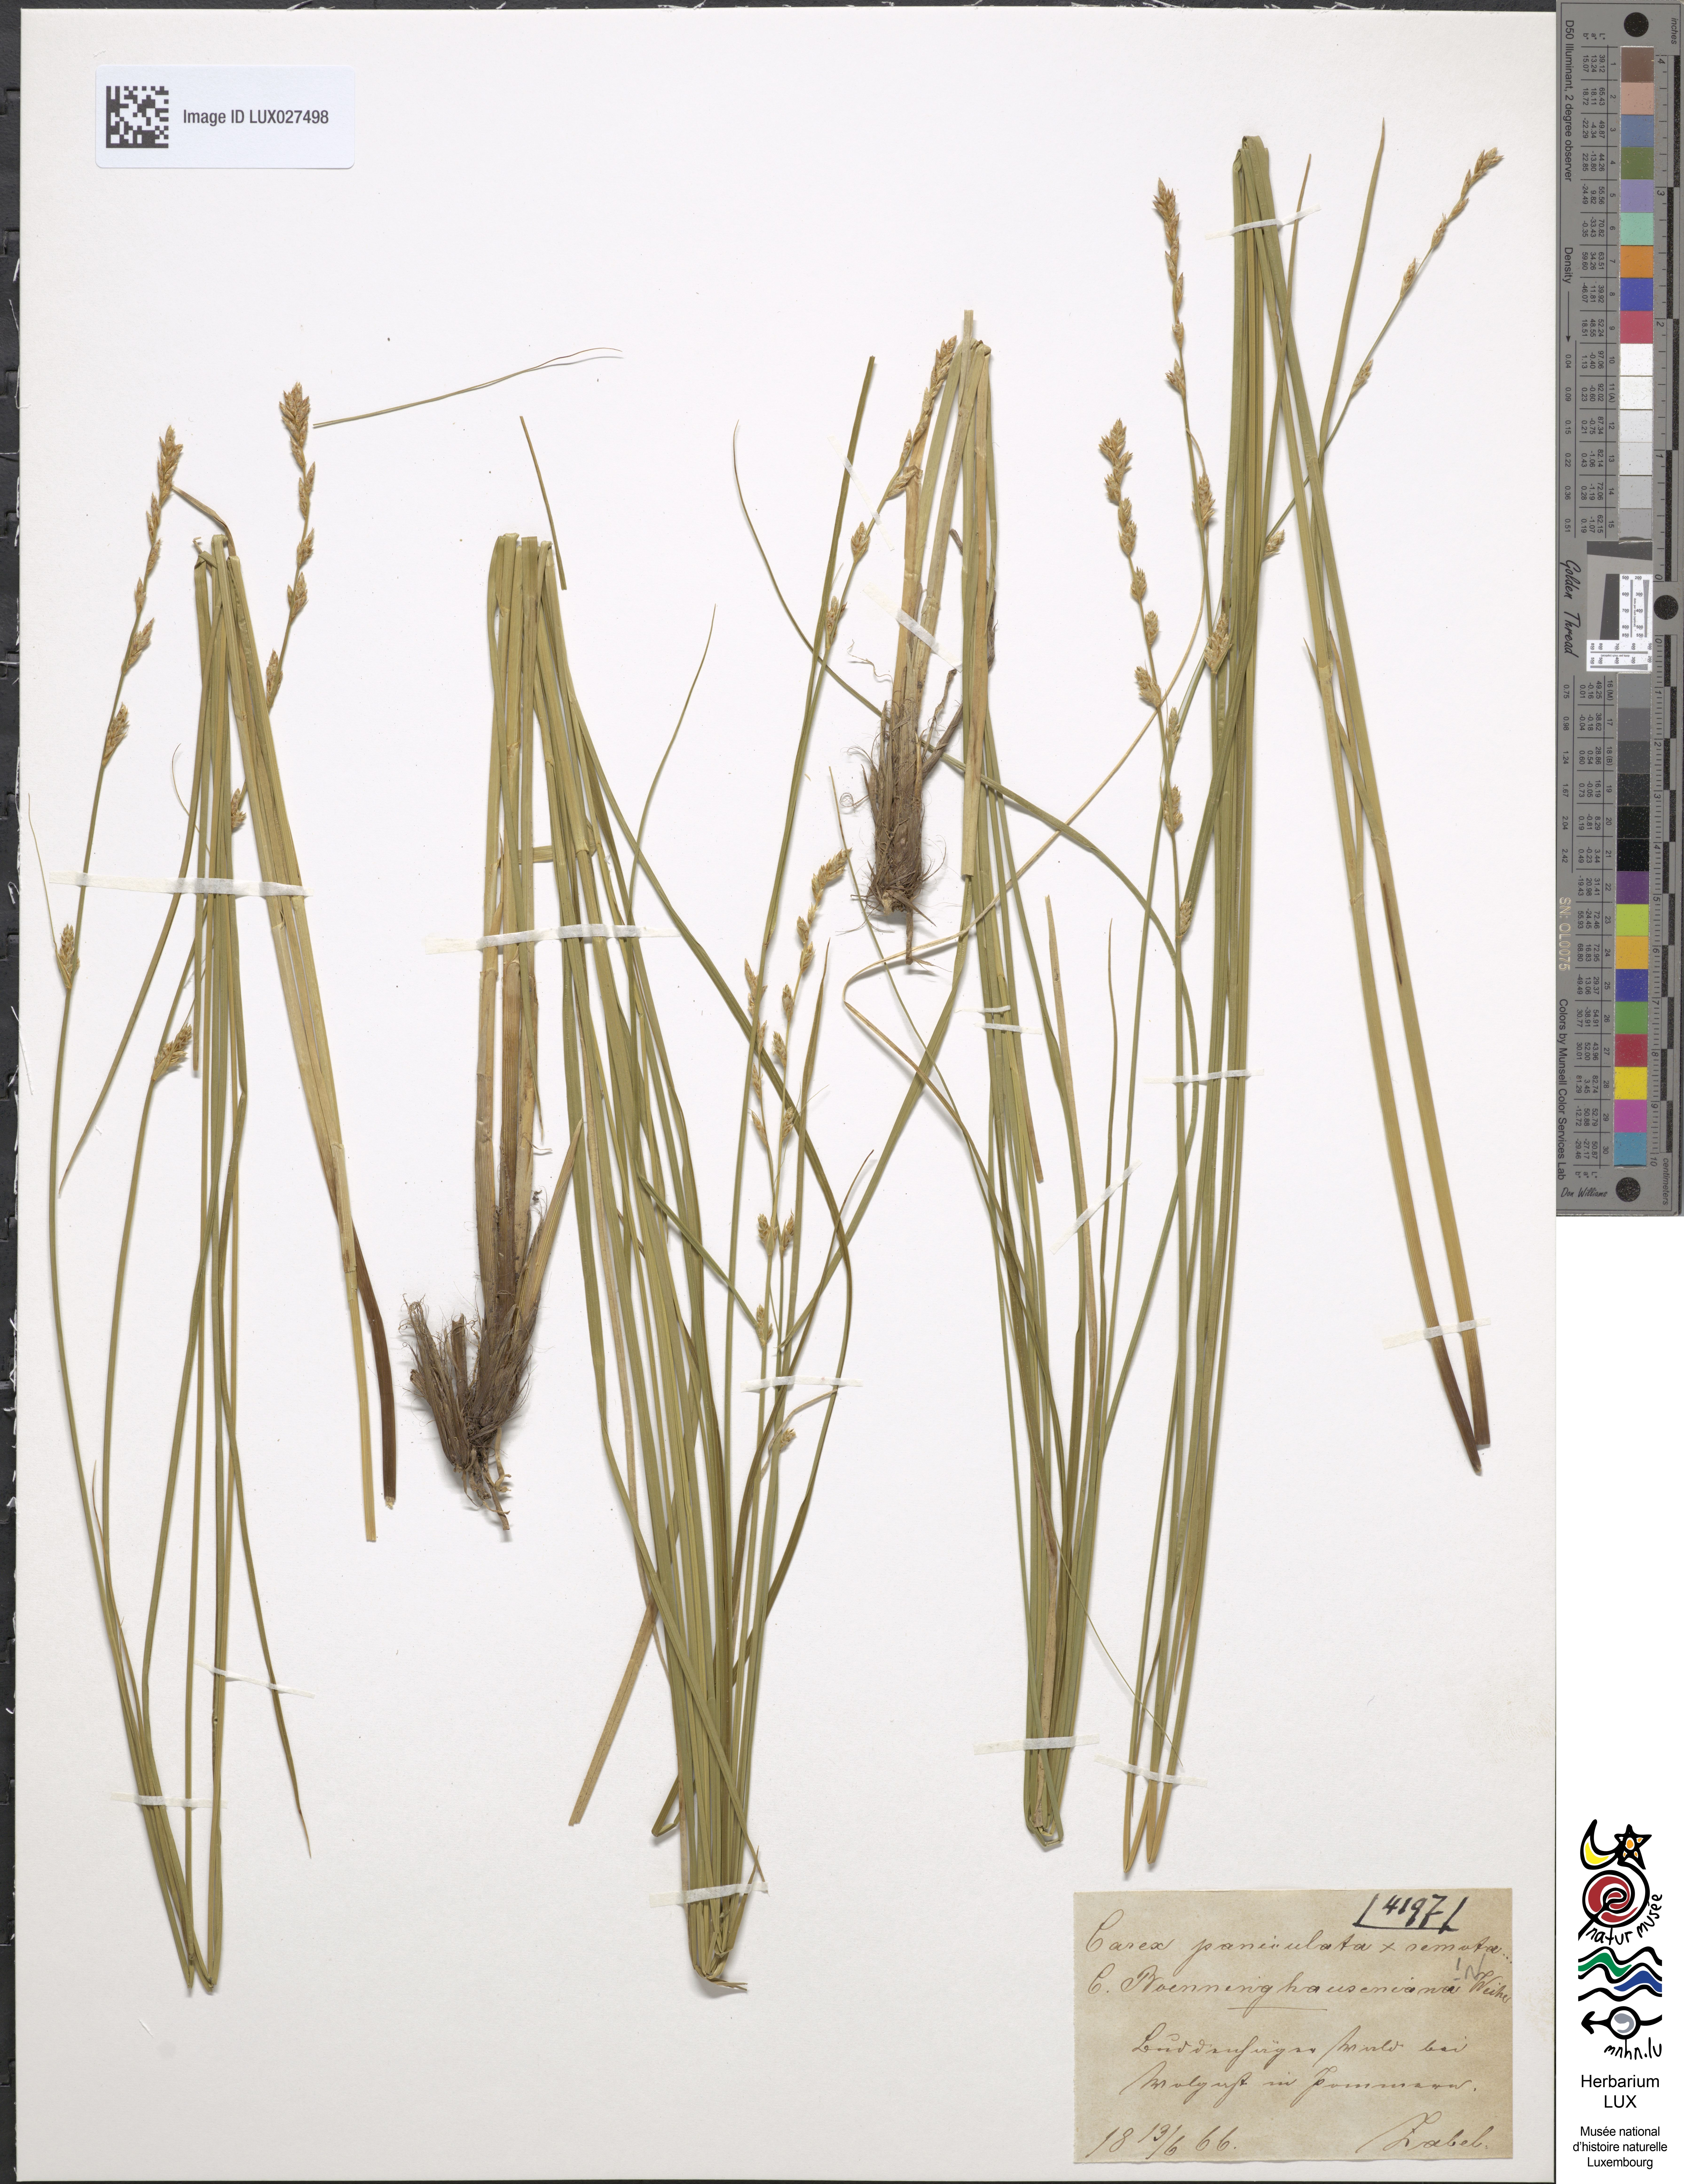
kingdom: Plantae
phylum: Tracheophyta
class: Liliopsida
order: Poales
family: Cyperaceae
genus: Carex
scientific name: Carex boenninghausiana
